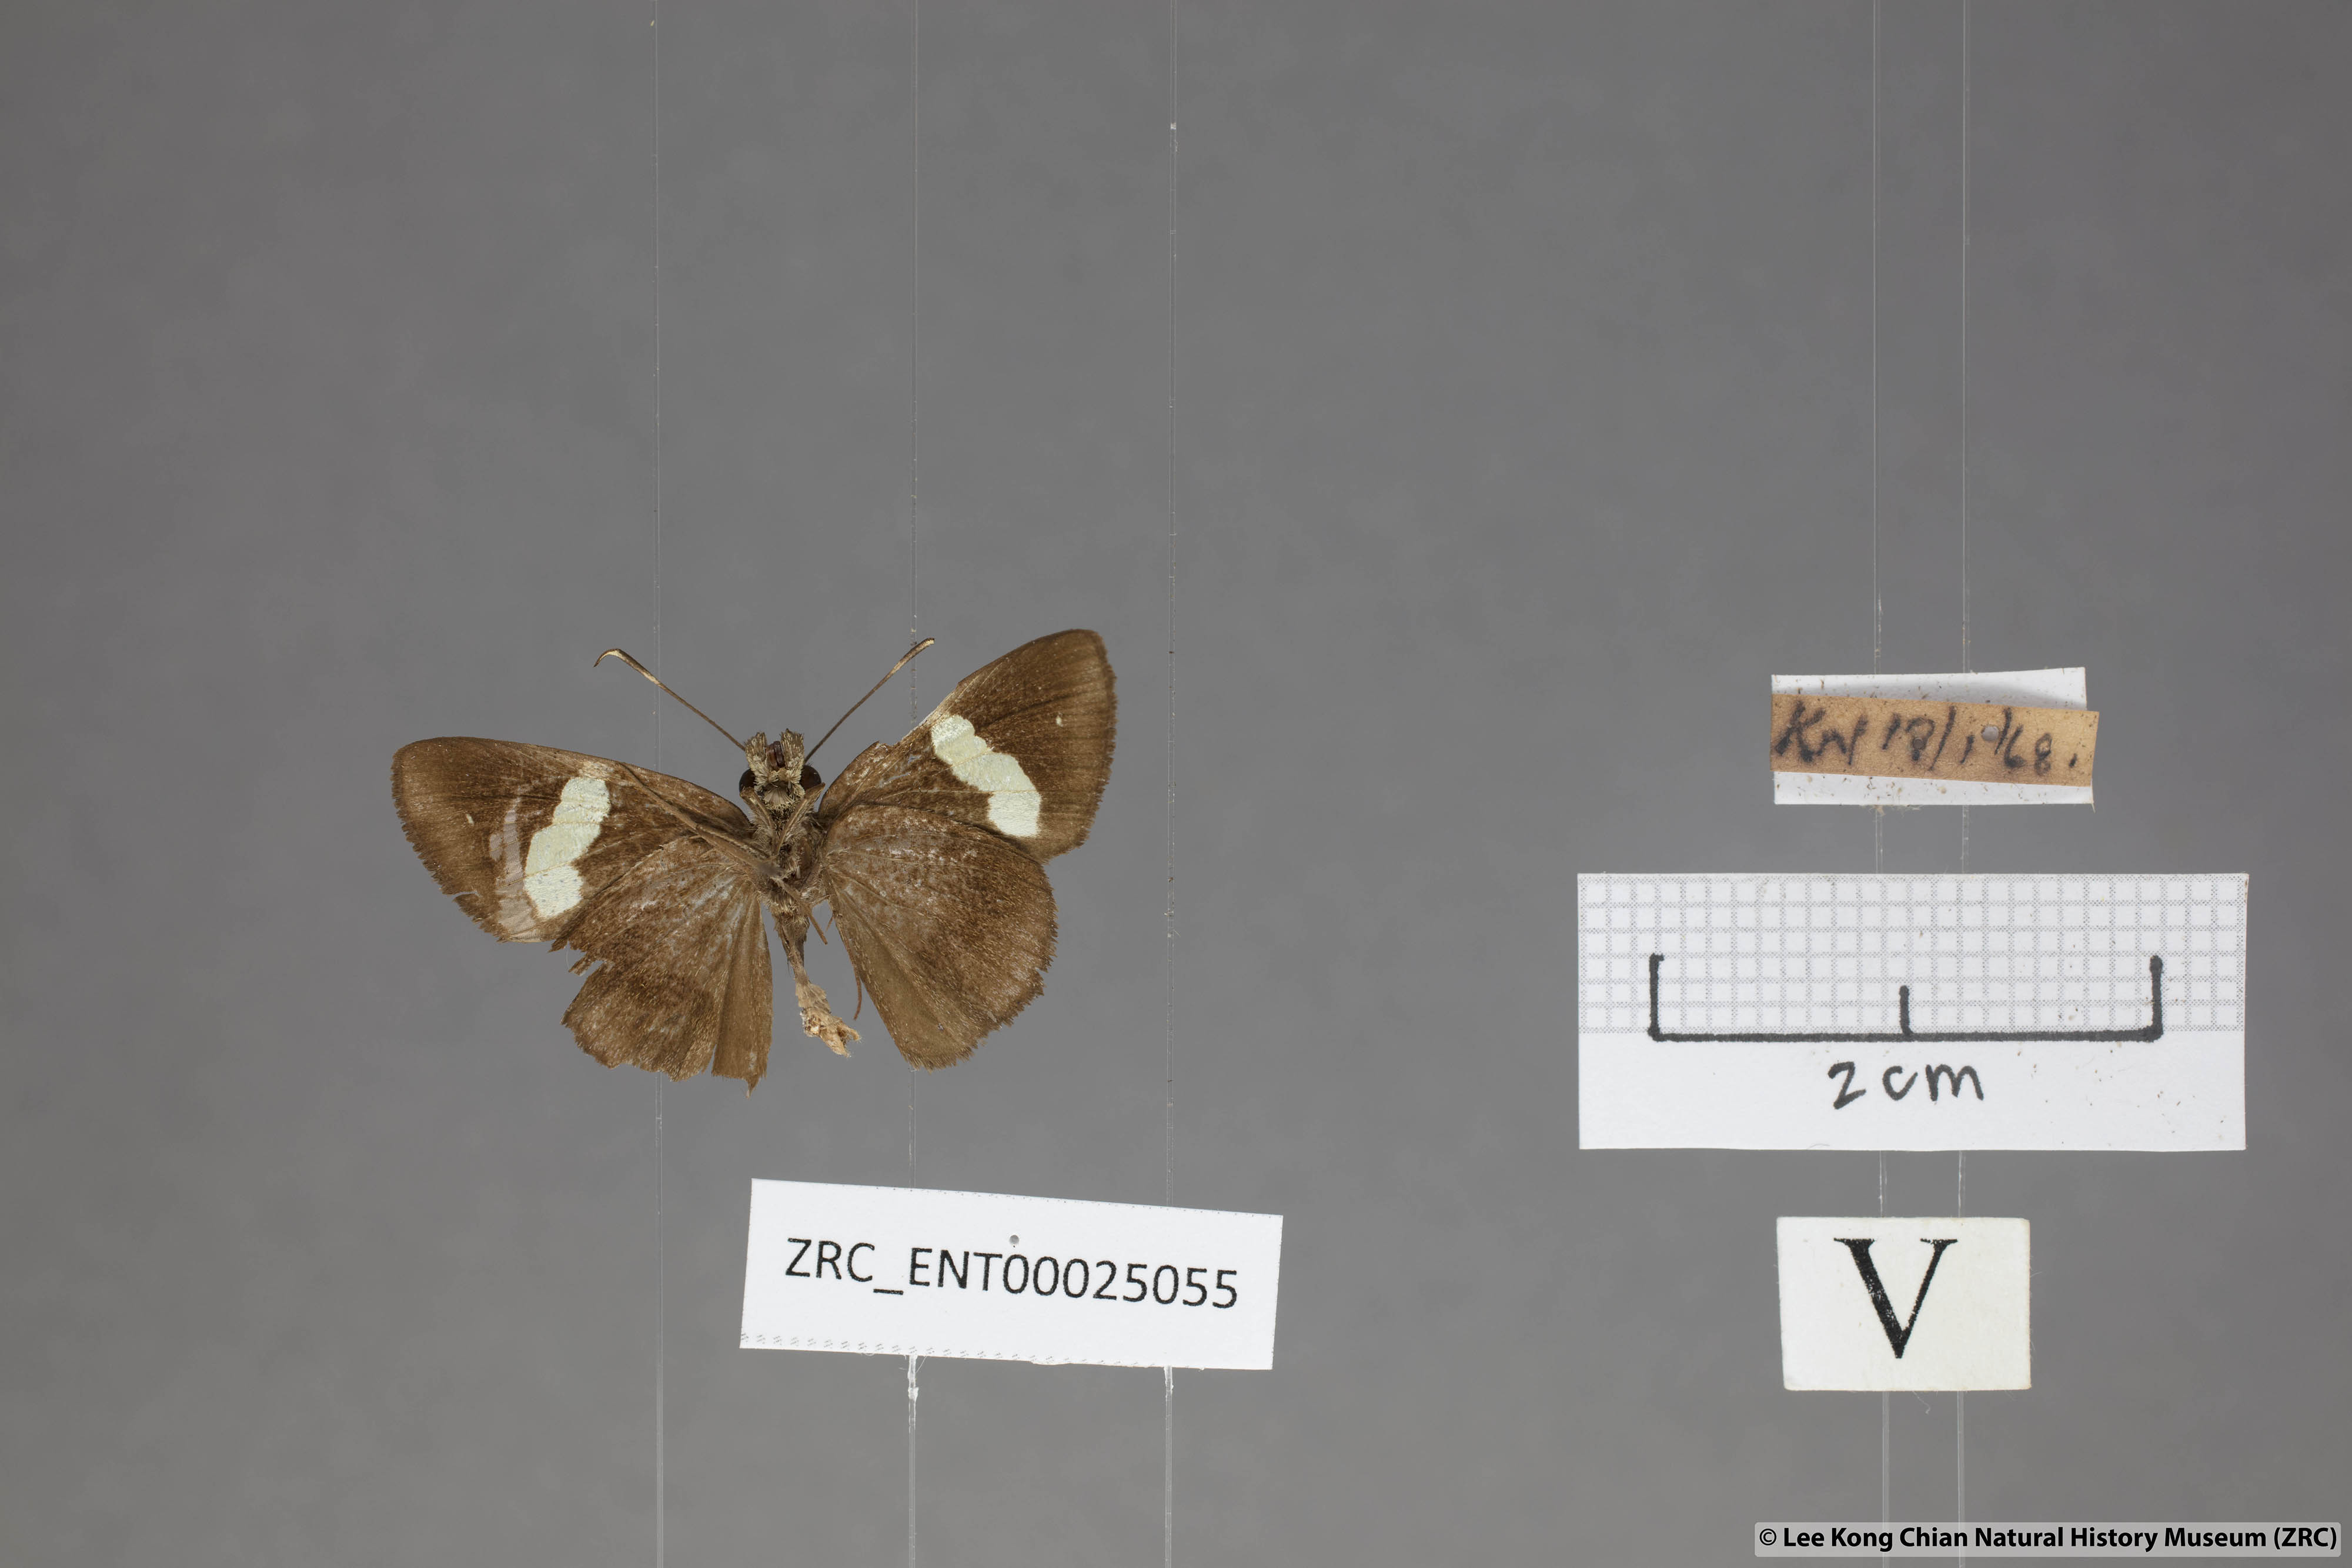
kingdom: Animalia
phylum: Arthropoda
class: Insecta
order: Lepidoptera
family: Hesperiidae
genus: Notocrypta
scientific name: Notocrypta pria
